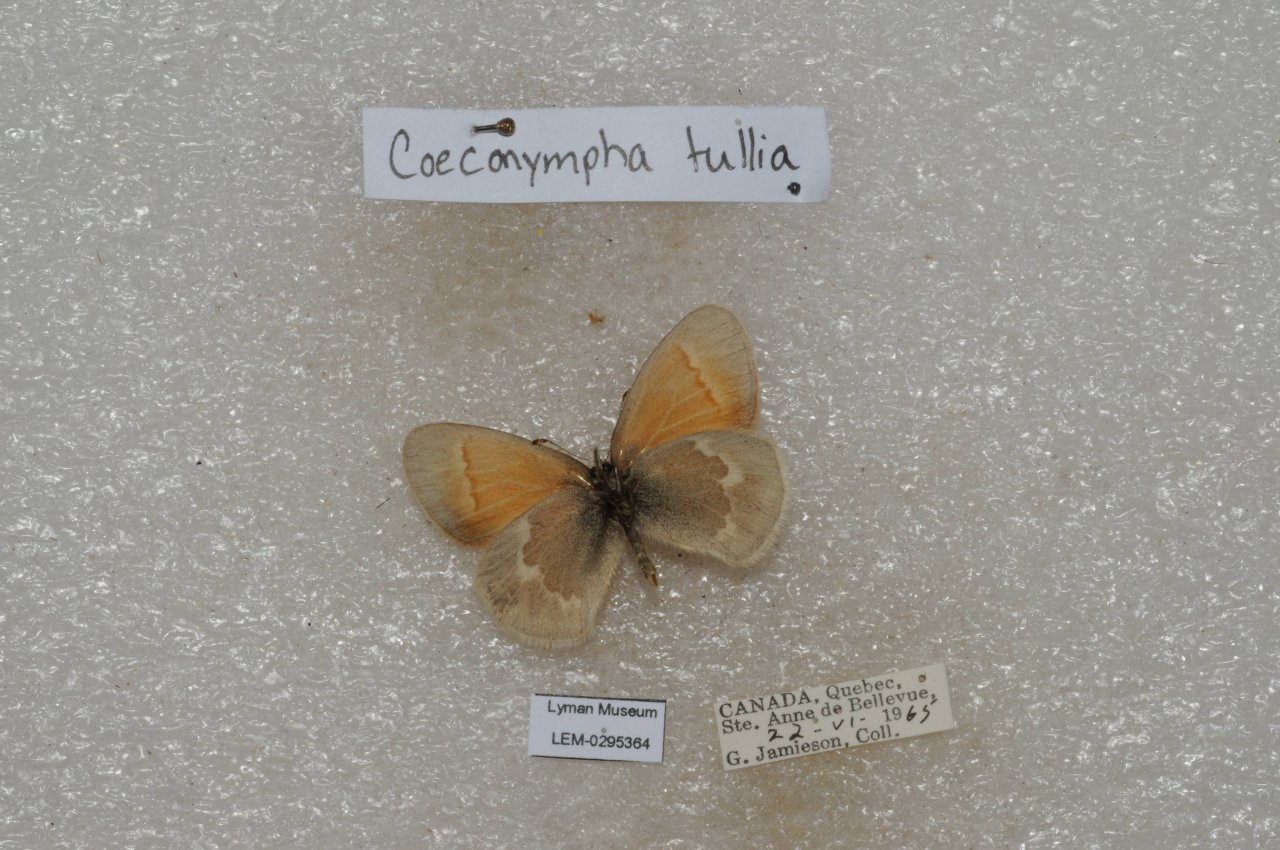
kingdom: Animalia
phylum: Arthropoda
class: Insecta
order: Lepidoptera
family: Nymphalidae
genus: Coenonympha
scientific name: Coenonympha tullia
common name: Large Heath
